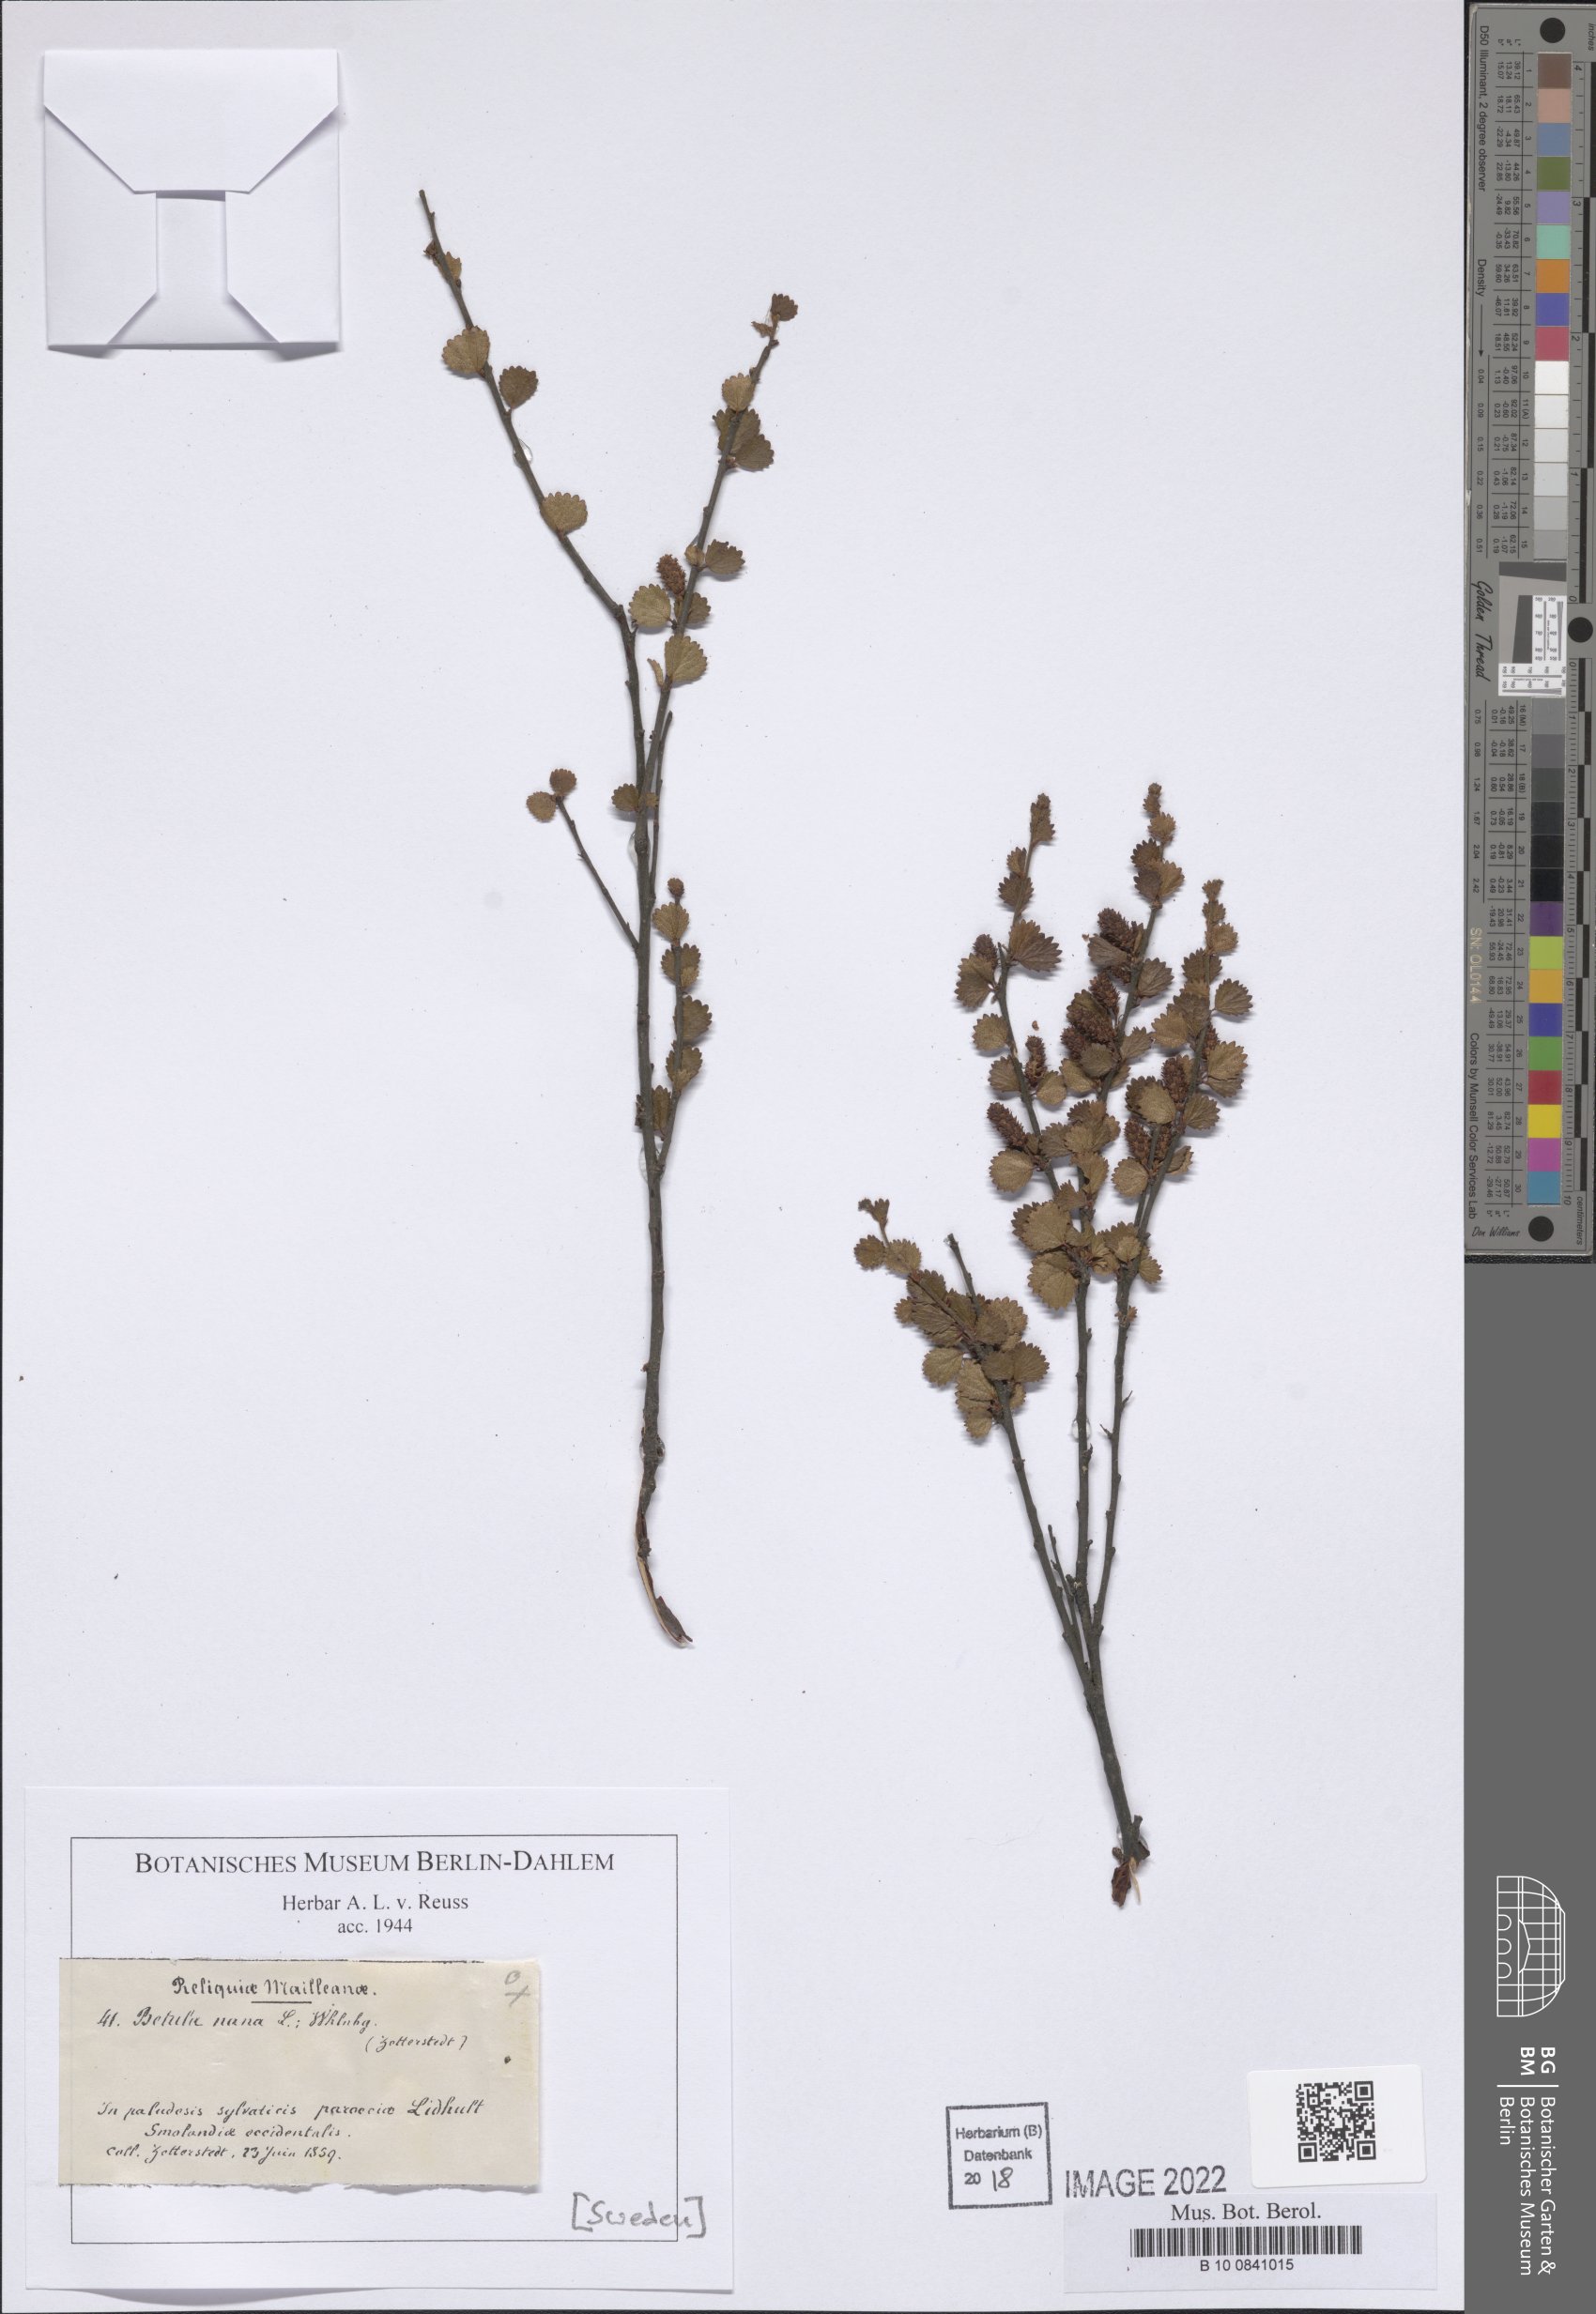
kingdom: Plantae
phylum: Tracheophyta
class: Magnoliopsida
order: Fagales
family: Betulaceae
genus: Betula
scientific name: Betula nana
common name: Arctic dwarf birch
